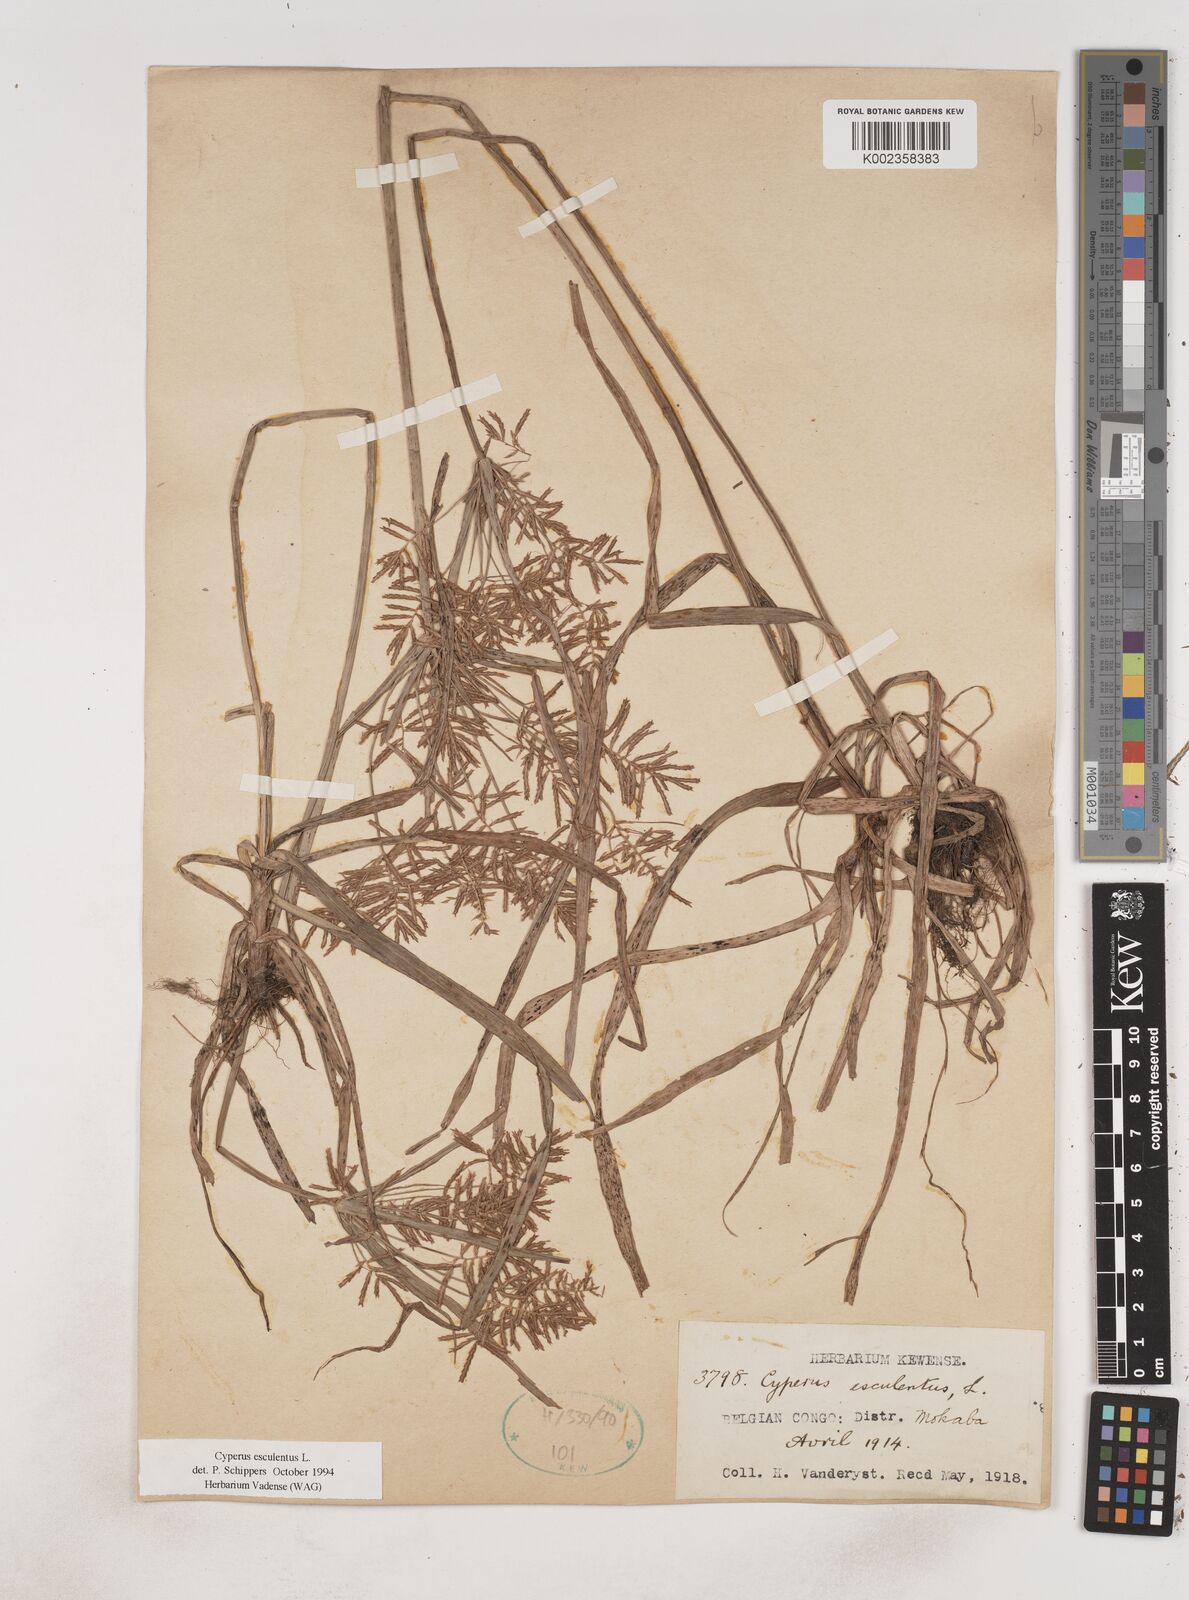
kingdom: Plantae
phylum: Tracheophyta
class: Liliopsida
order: Poales
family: Cyperaceae
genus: Cyperus
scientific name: Cyperus esculentus
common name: Yellow nutsedge
